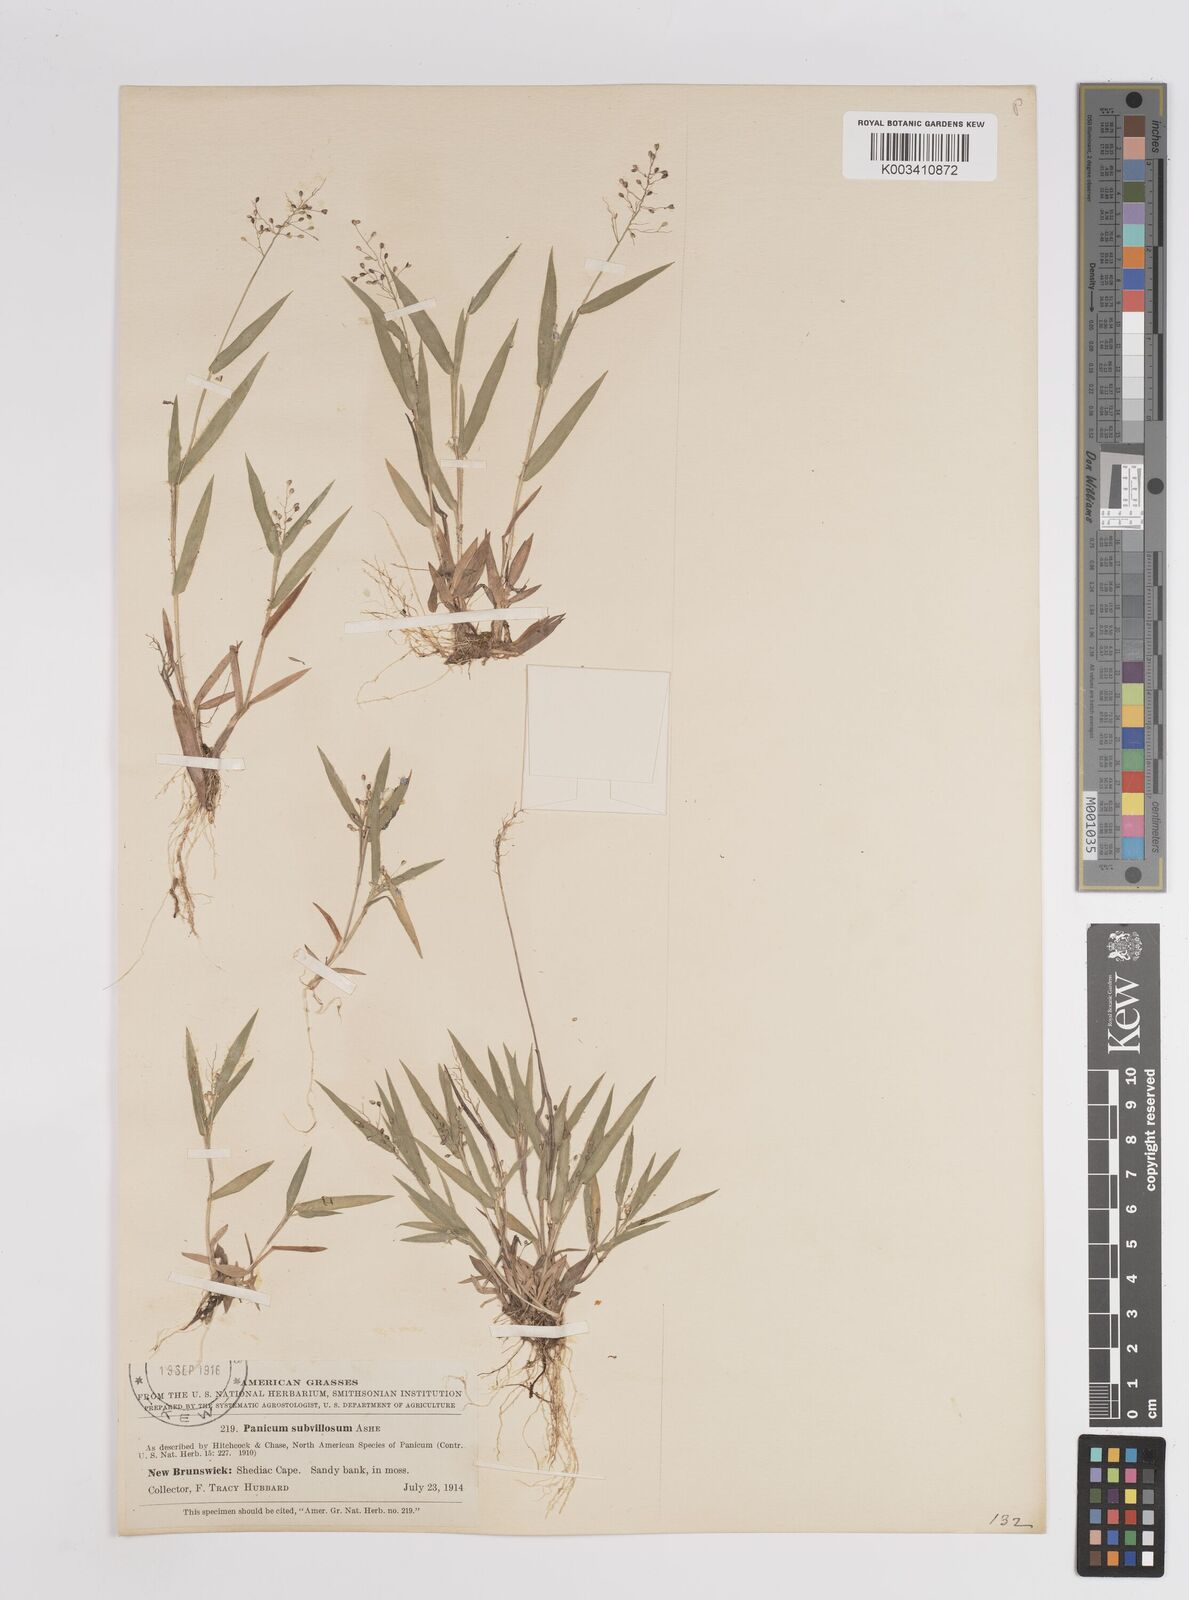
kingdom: Plantae
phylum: Tracheophyta
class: Liliopsida
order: Poales
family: Poaceae
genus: Dichanthelium
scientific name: Dichanthelium subvillosum
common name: Soft-haired panicgrass
